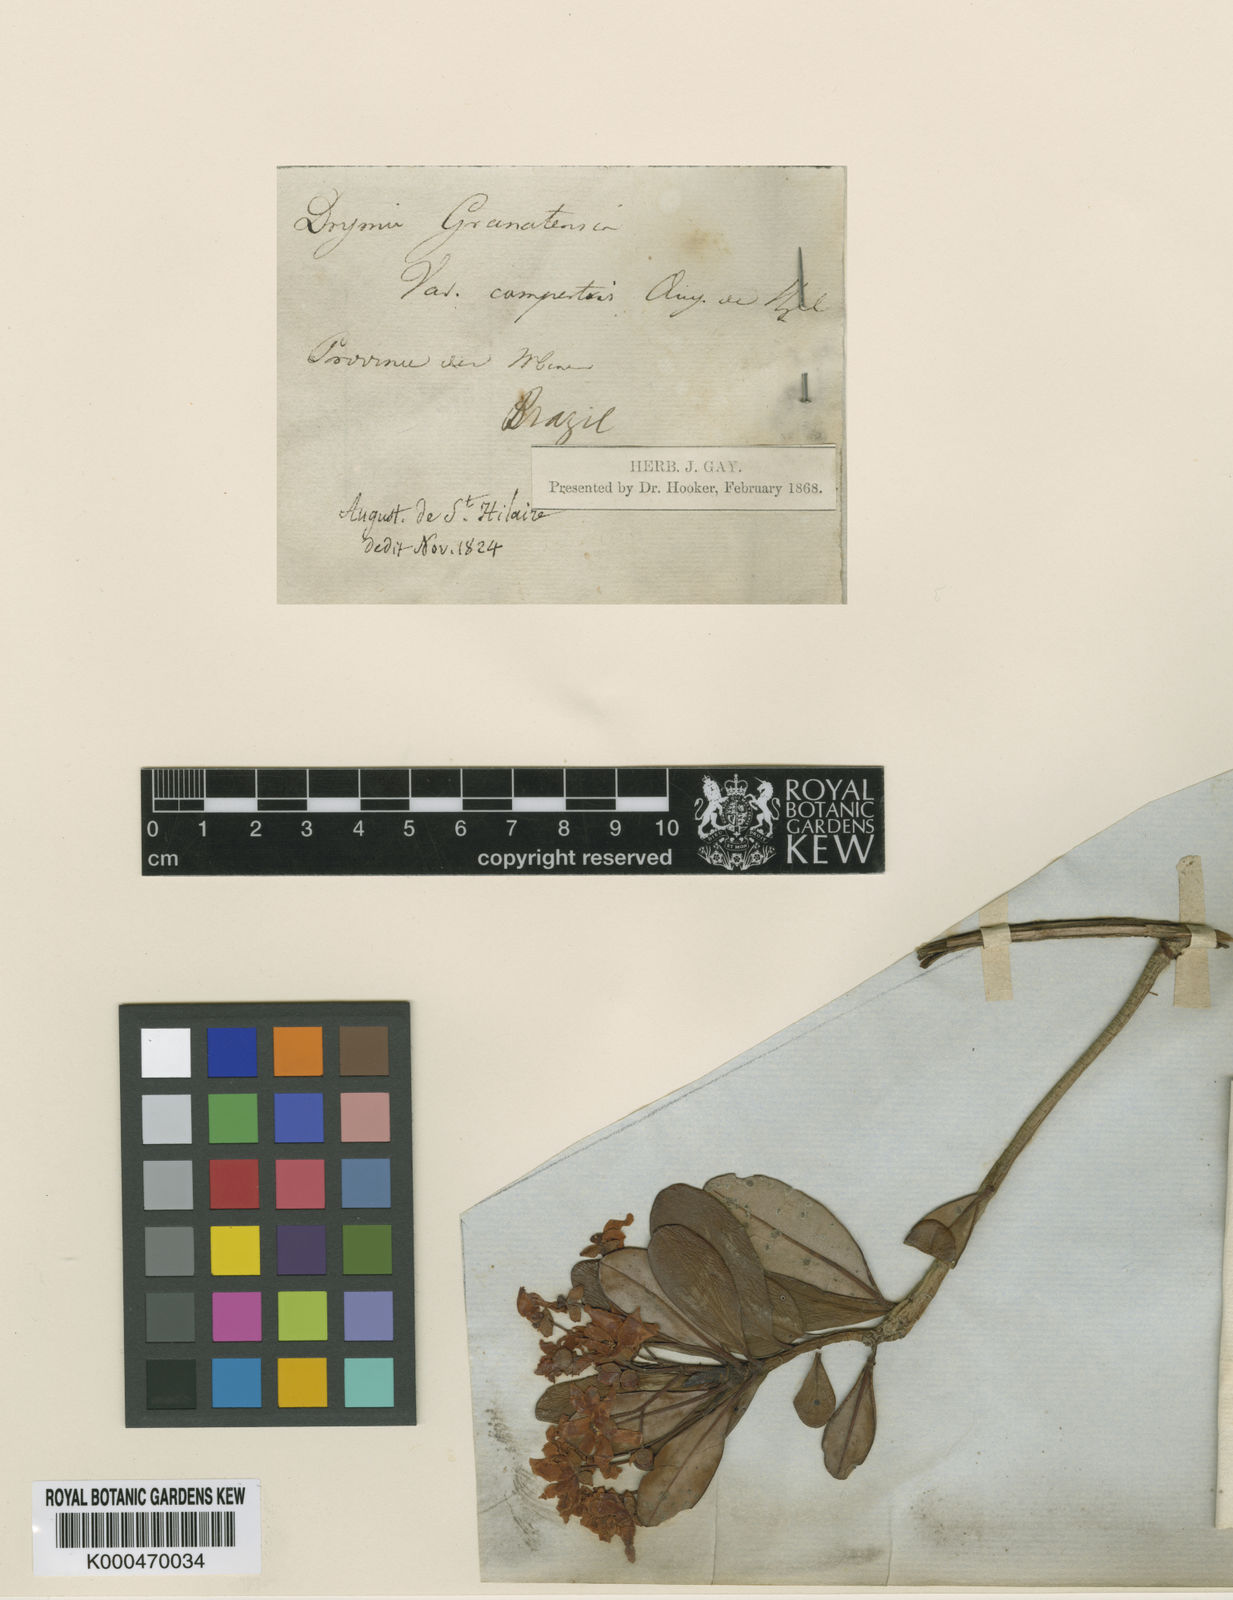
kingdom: Plantae
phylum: Tracheophyta
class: Magnoliopsida
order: Canellales
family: Winteraceae
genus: Drimys
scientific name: Drimys
